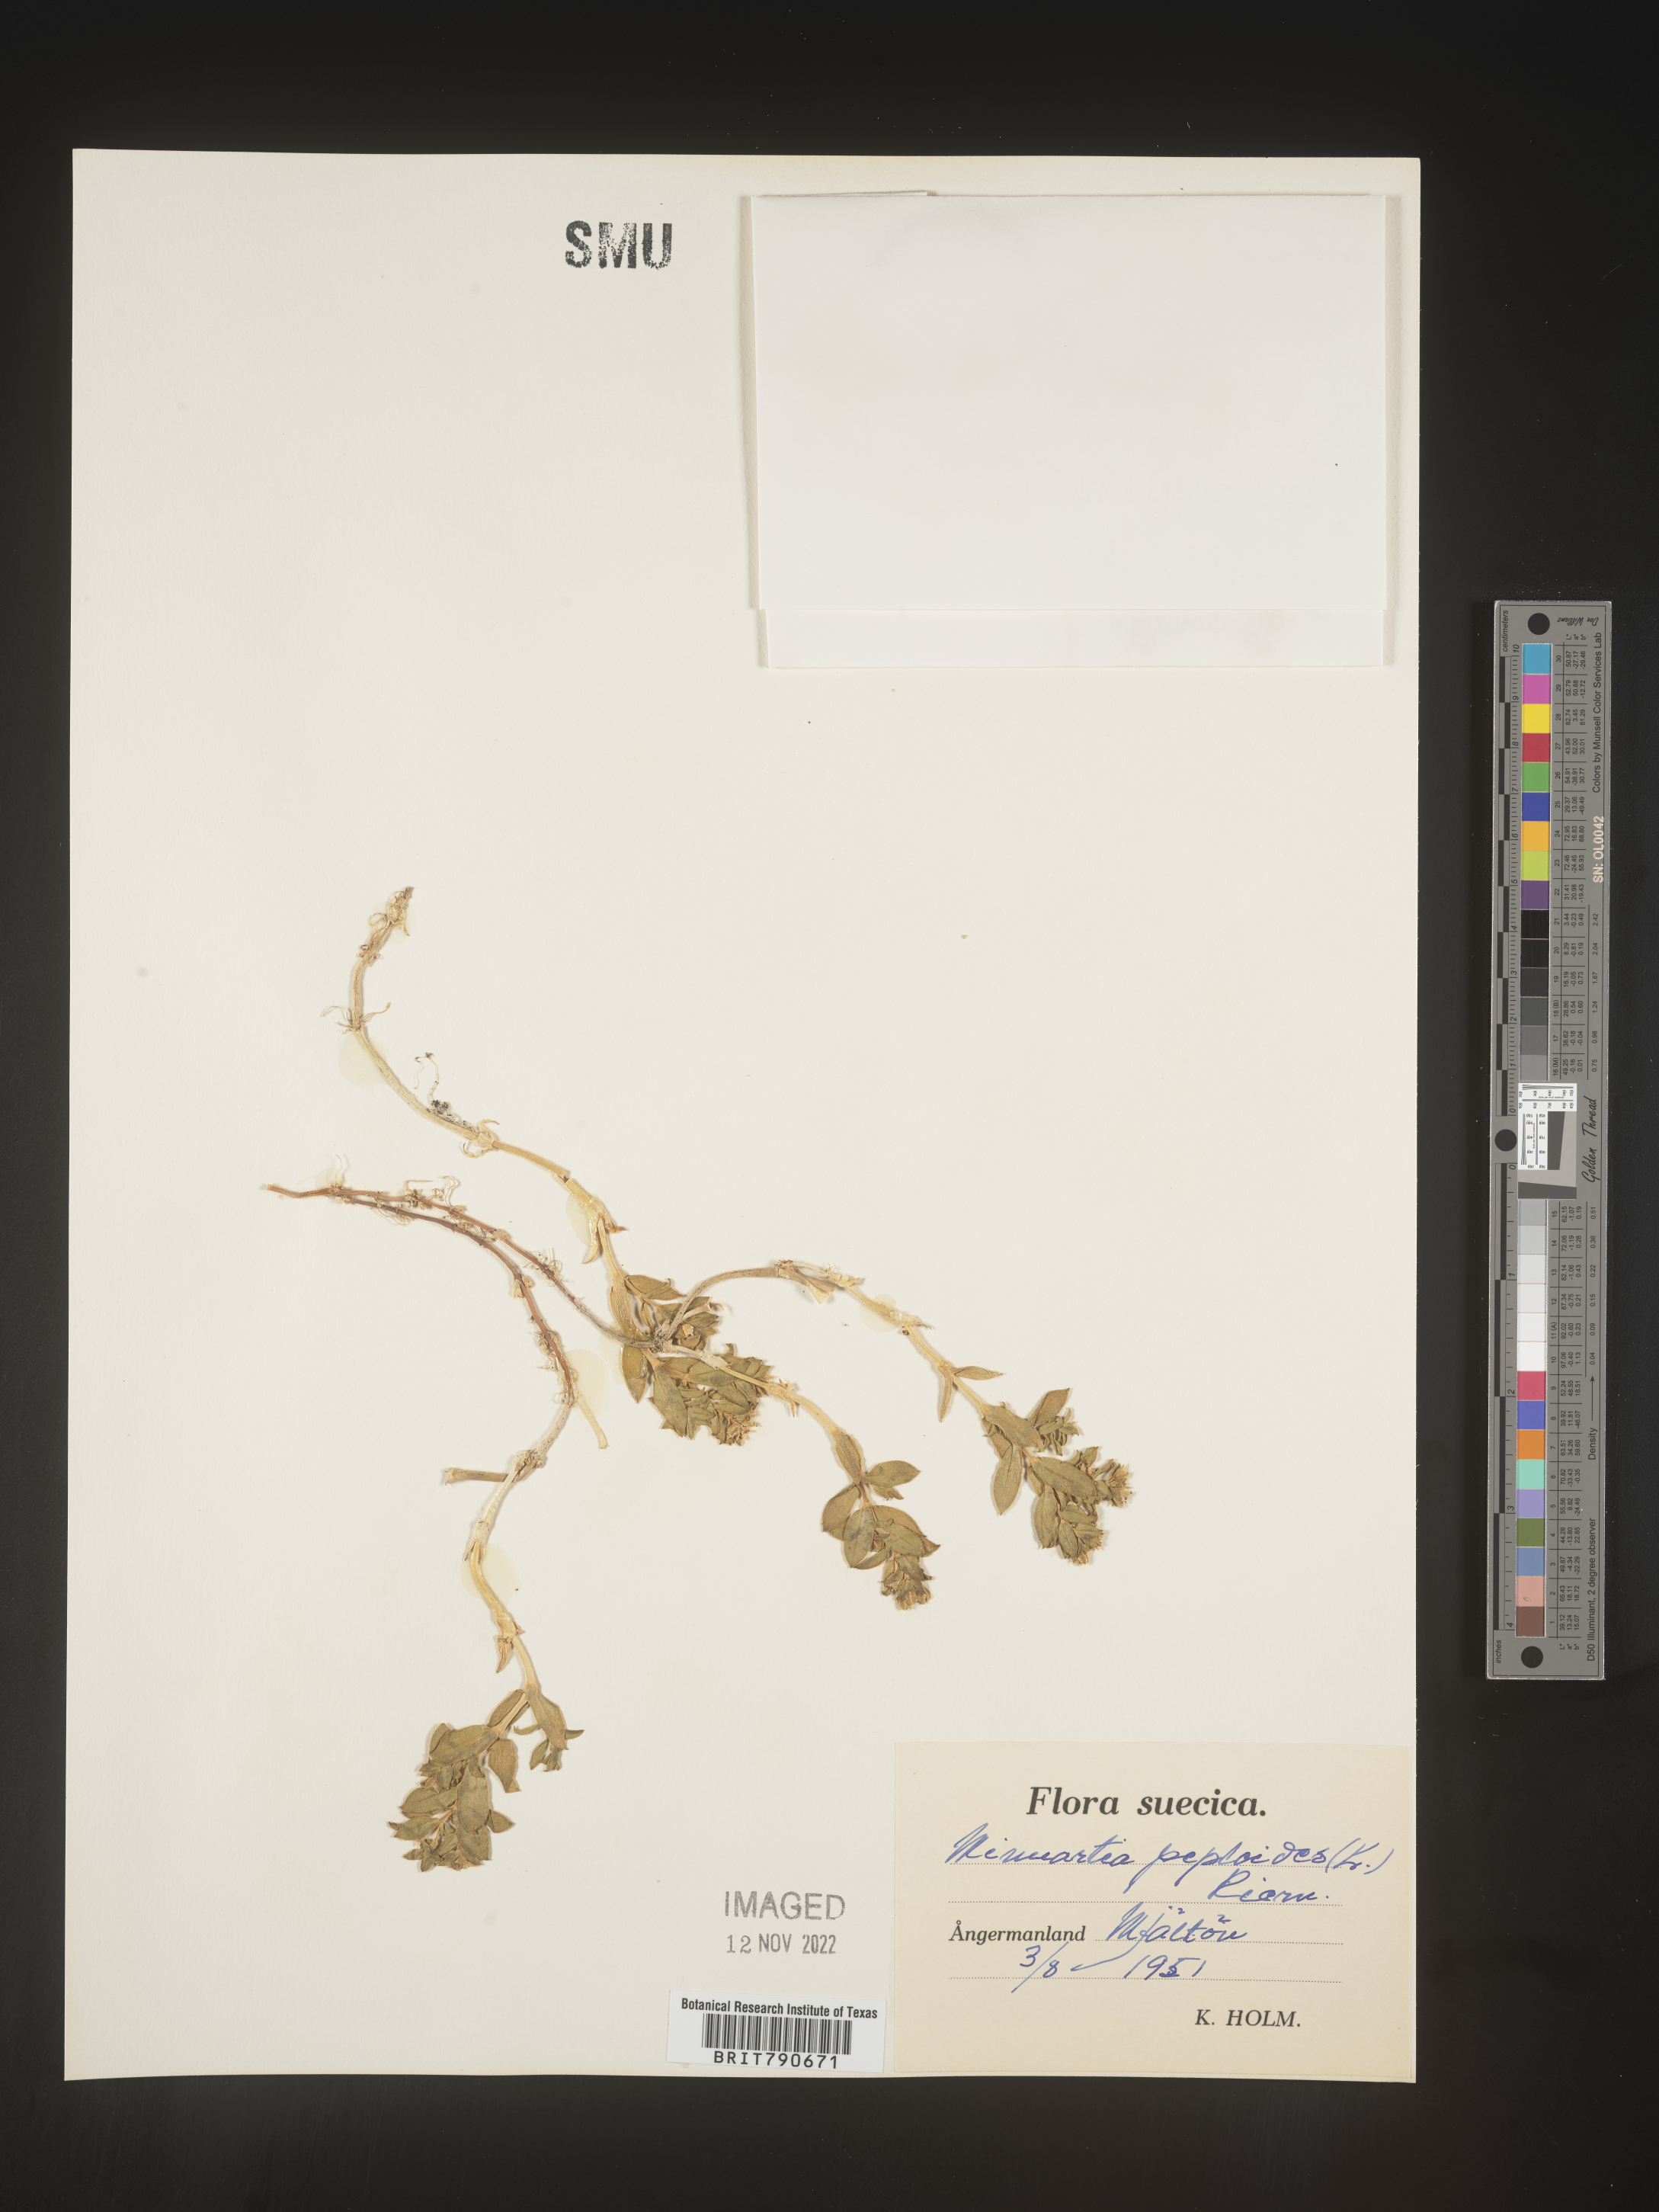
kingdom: Plantae
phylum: Tracheophyta
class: Magnoliopsida
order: Malvales
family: Malvaceae
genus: Clappertonia
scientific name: Clappertonia
